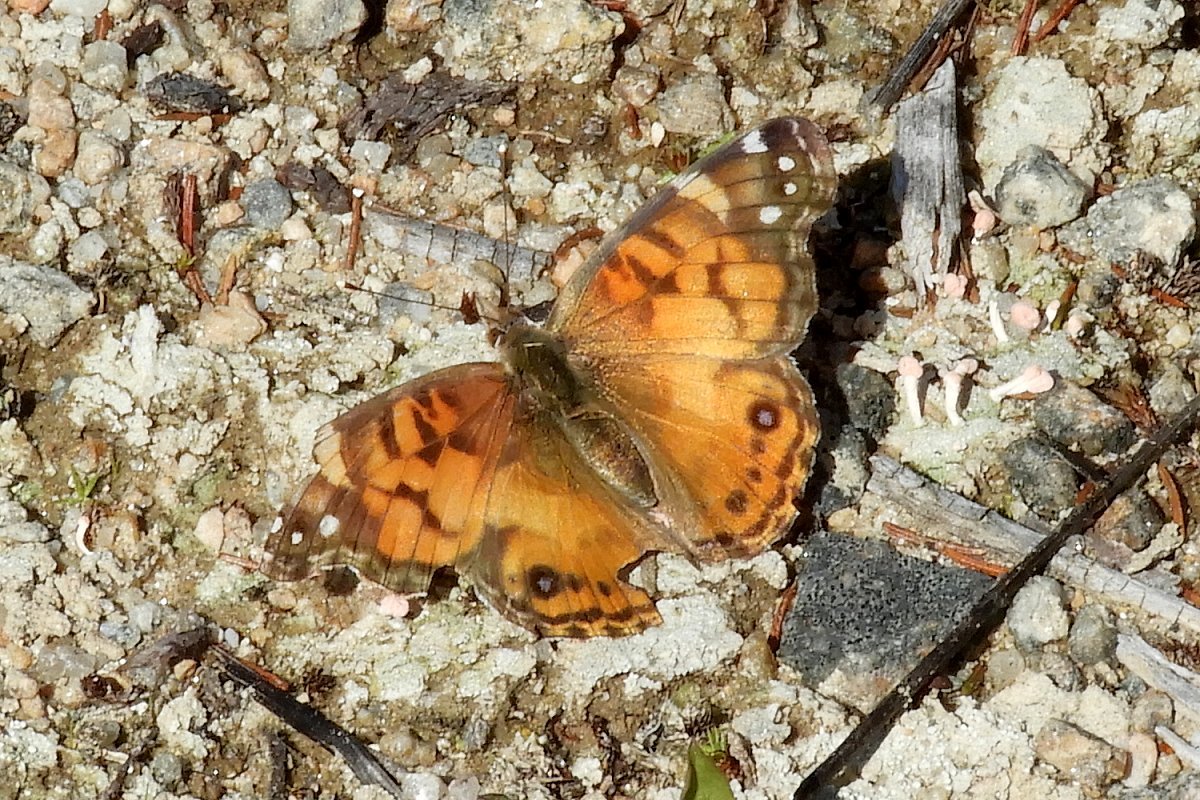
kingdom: Animalia
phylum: Arthropoda
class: Insecta
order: Lepidoptera
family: Nymphalidae
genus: Vanessa
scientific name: Vanessa virginiensis
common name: American Lady
